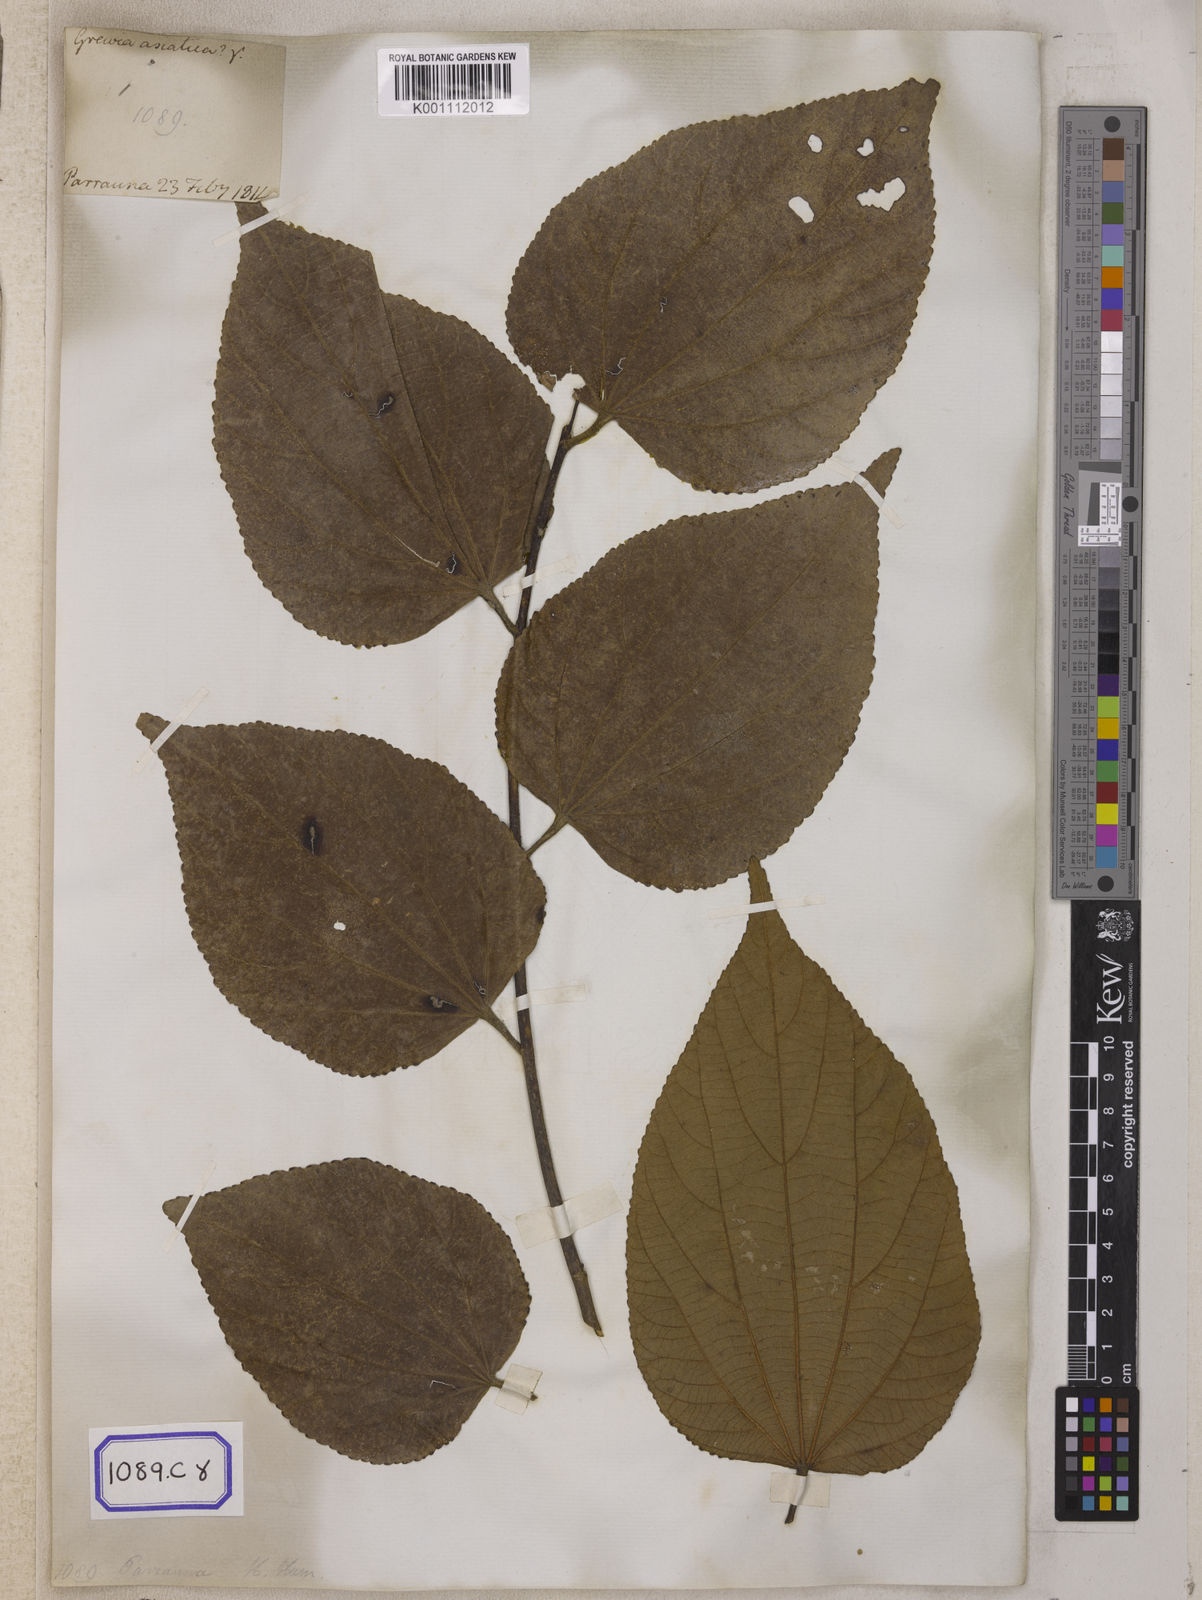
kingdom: Plantae
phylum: Tracheophyta
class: Magnoliopsida
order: Malvales
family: Malvaceae
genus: Grewia
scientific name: Grewia asiatica
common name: Phalsa
